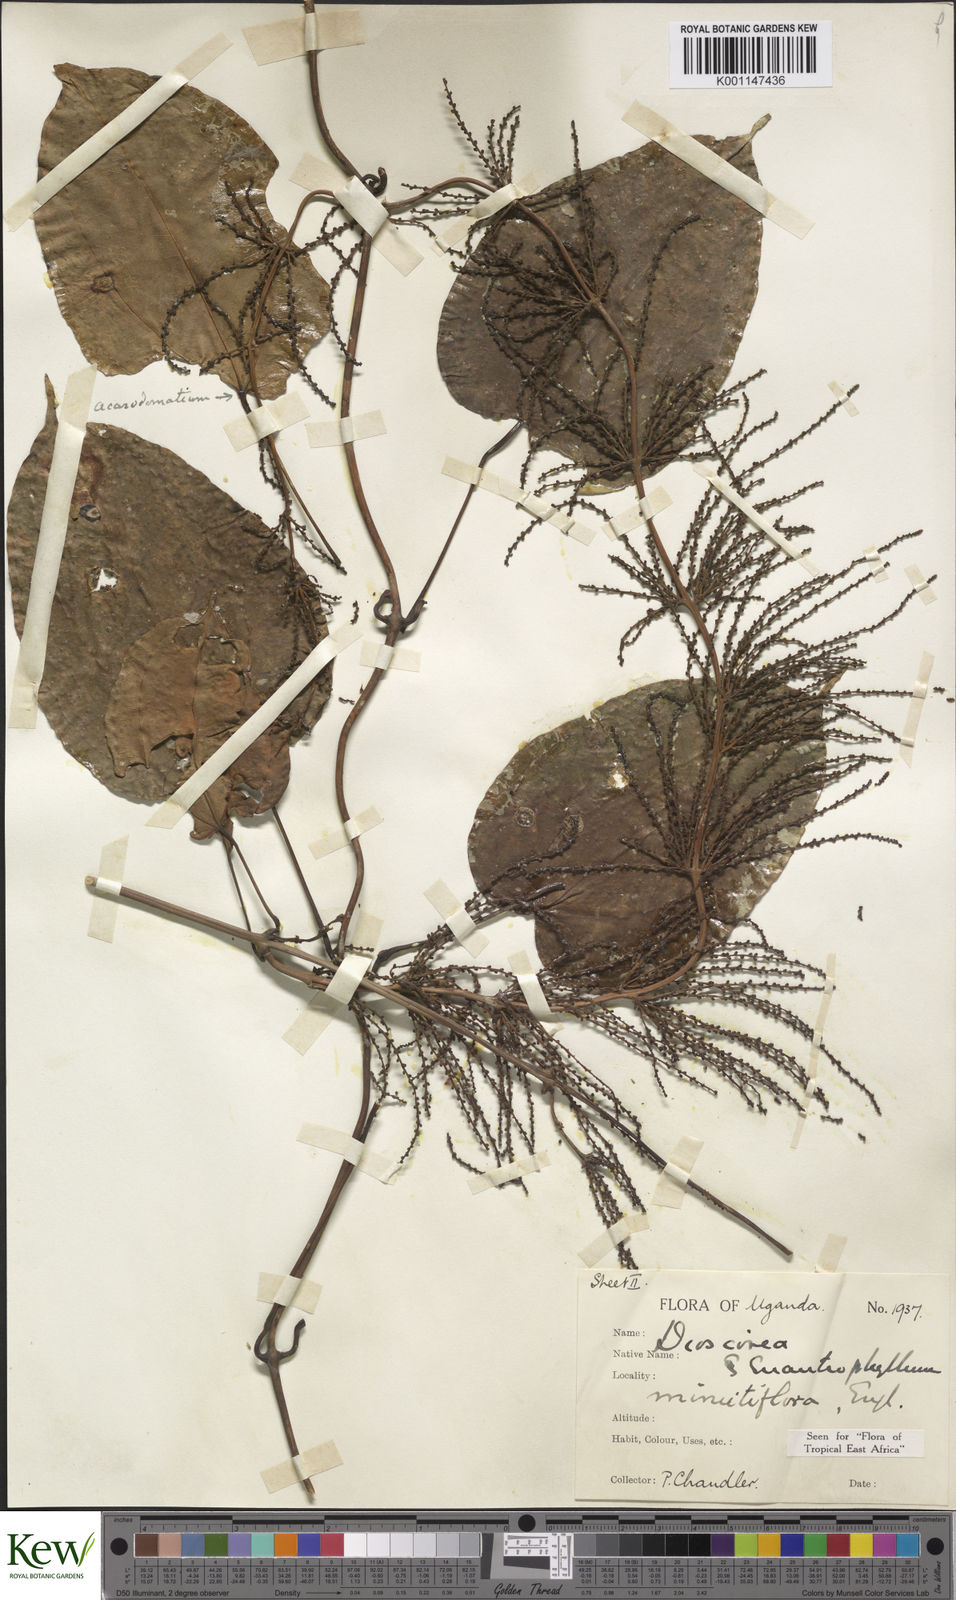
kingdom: Plantae
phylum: Tracheophyta
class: Liliopsida
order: Dioscoreales
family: Dioscoreaceae
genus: Dioscorea
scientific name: Dioscorea minutiflora
